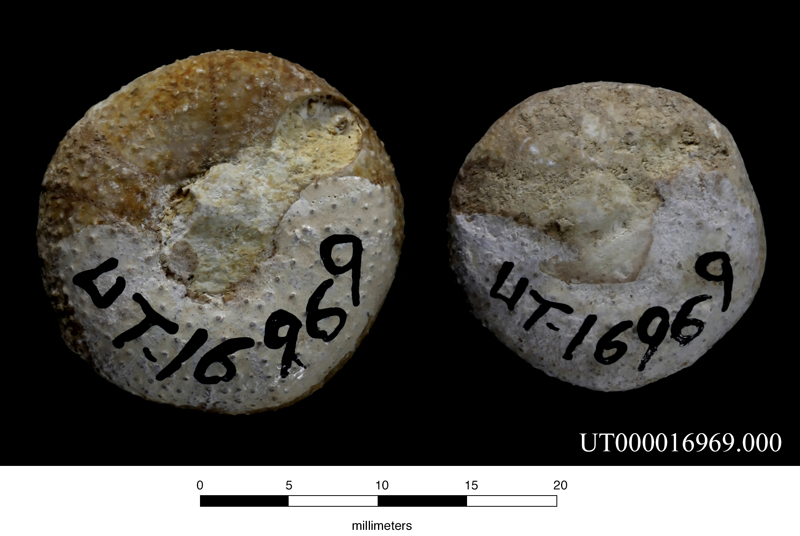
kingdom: Animalia
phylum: Echinodermata
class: Echinoidea
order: Holectypoida
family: Coenholectypidae
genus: Coenholectypus
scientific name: Coenholectypus planatus
